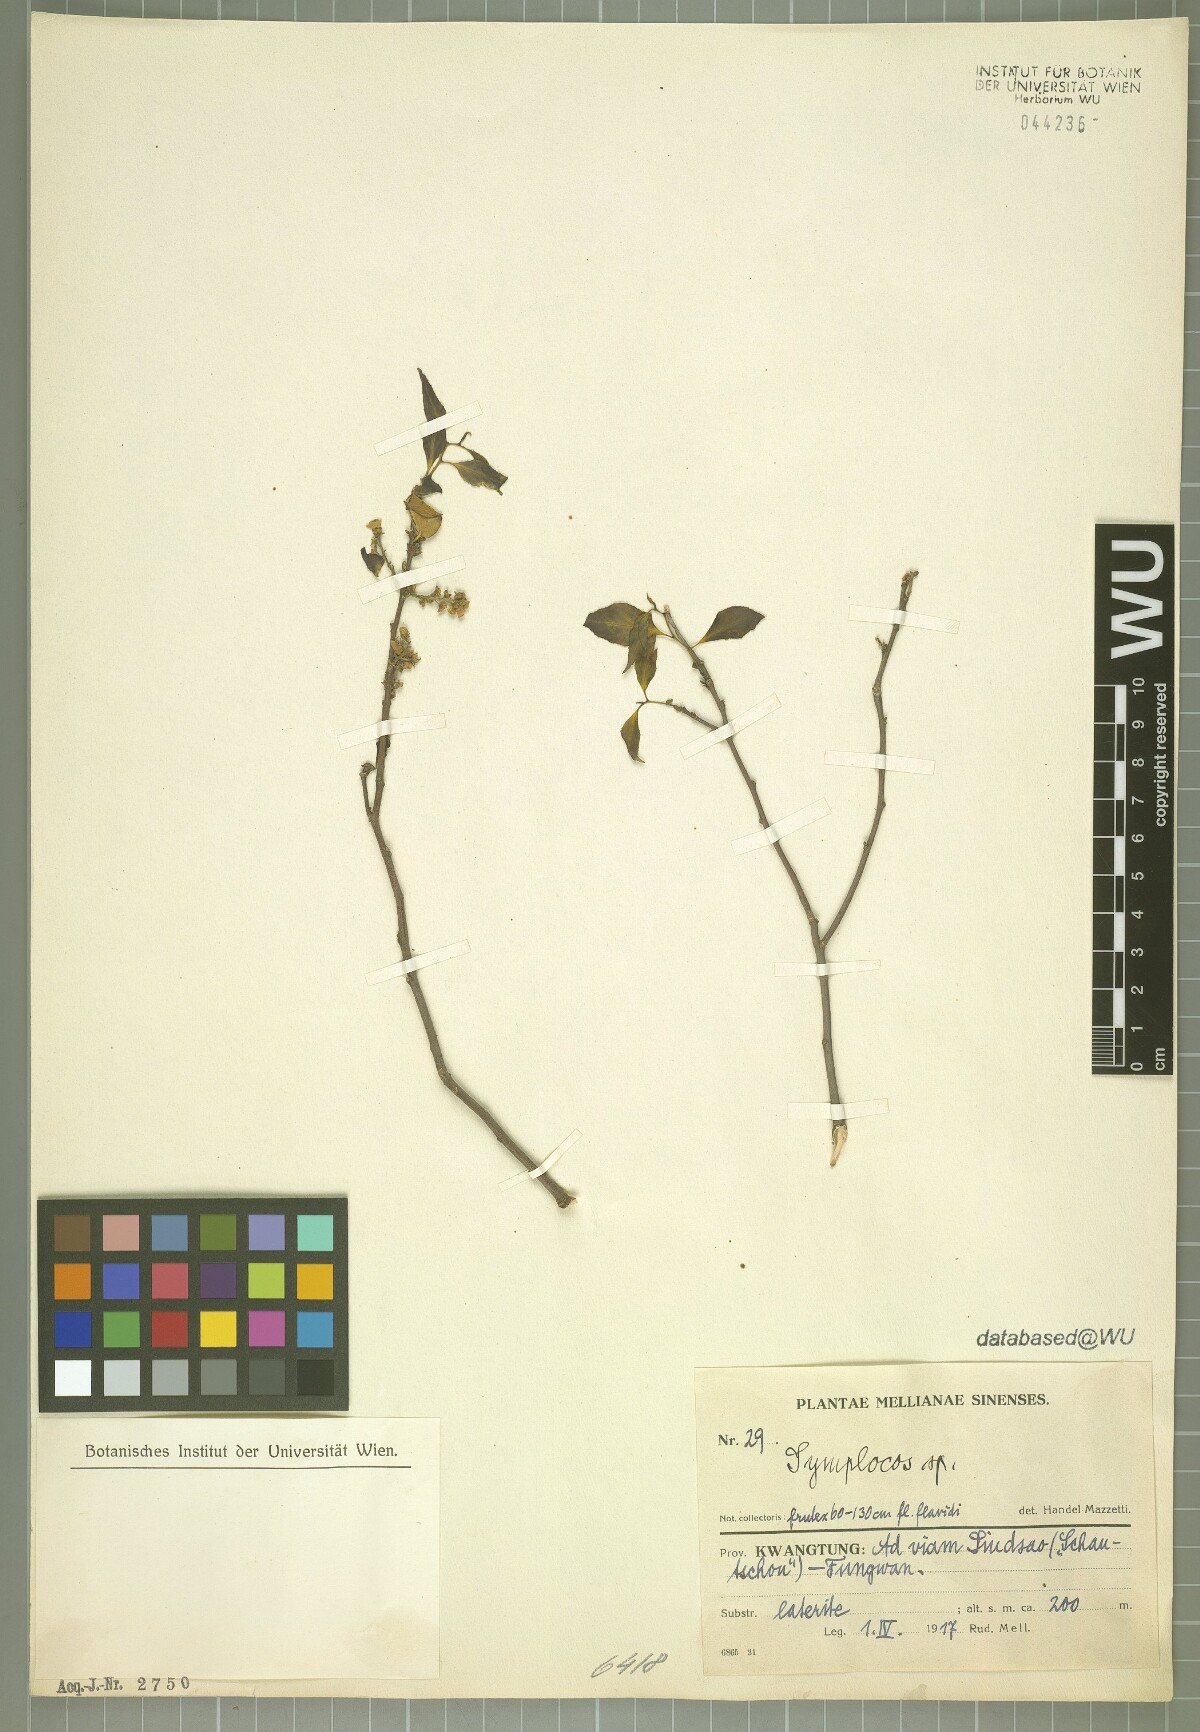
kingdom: Plantae
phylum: Tracheophyta
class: Magnoliopsida
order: Ericales
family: Symplocaceae
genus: Symplocos
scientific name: Symplocos
